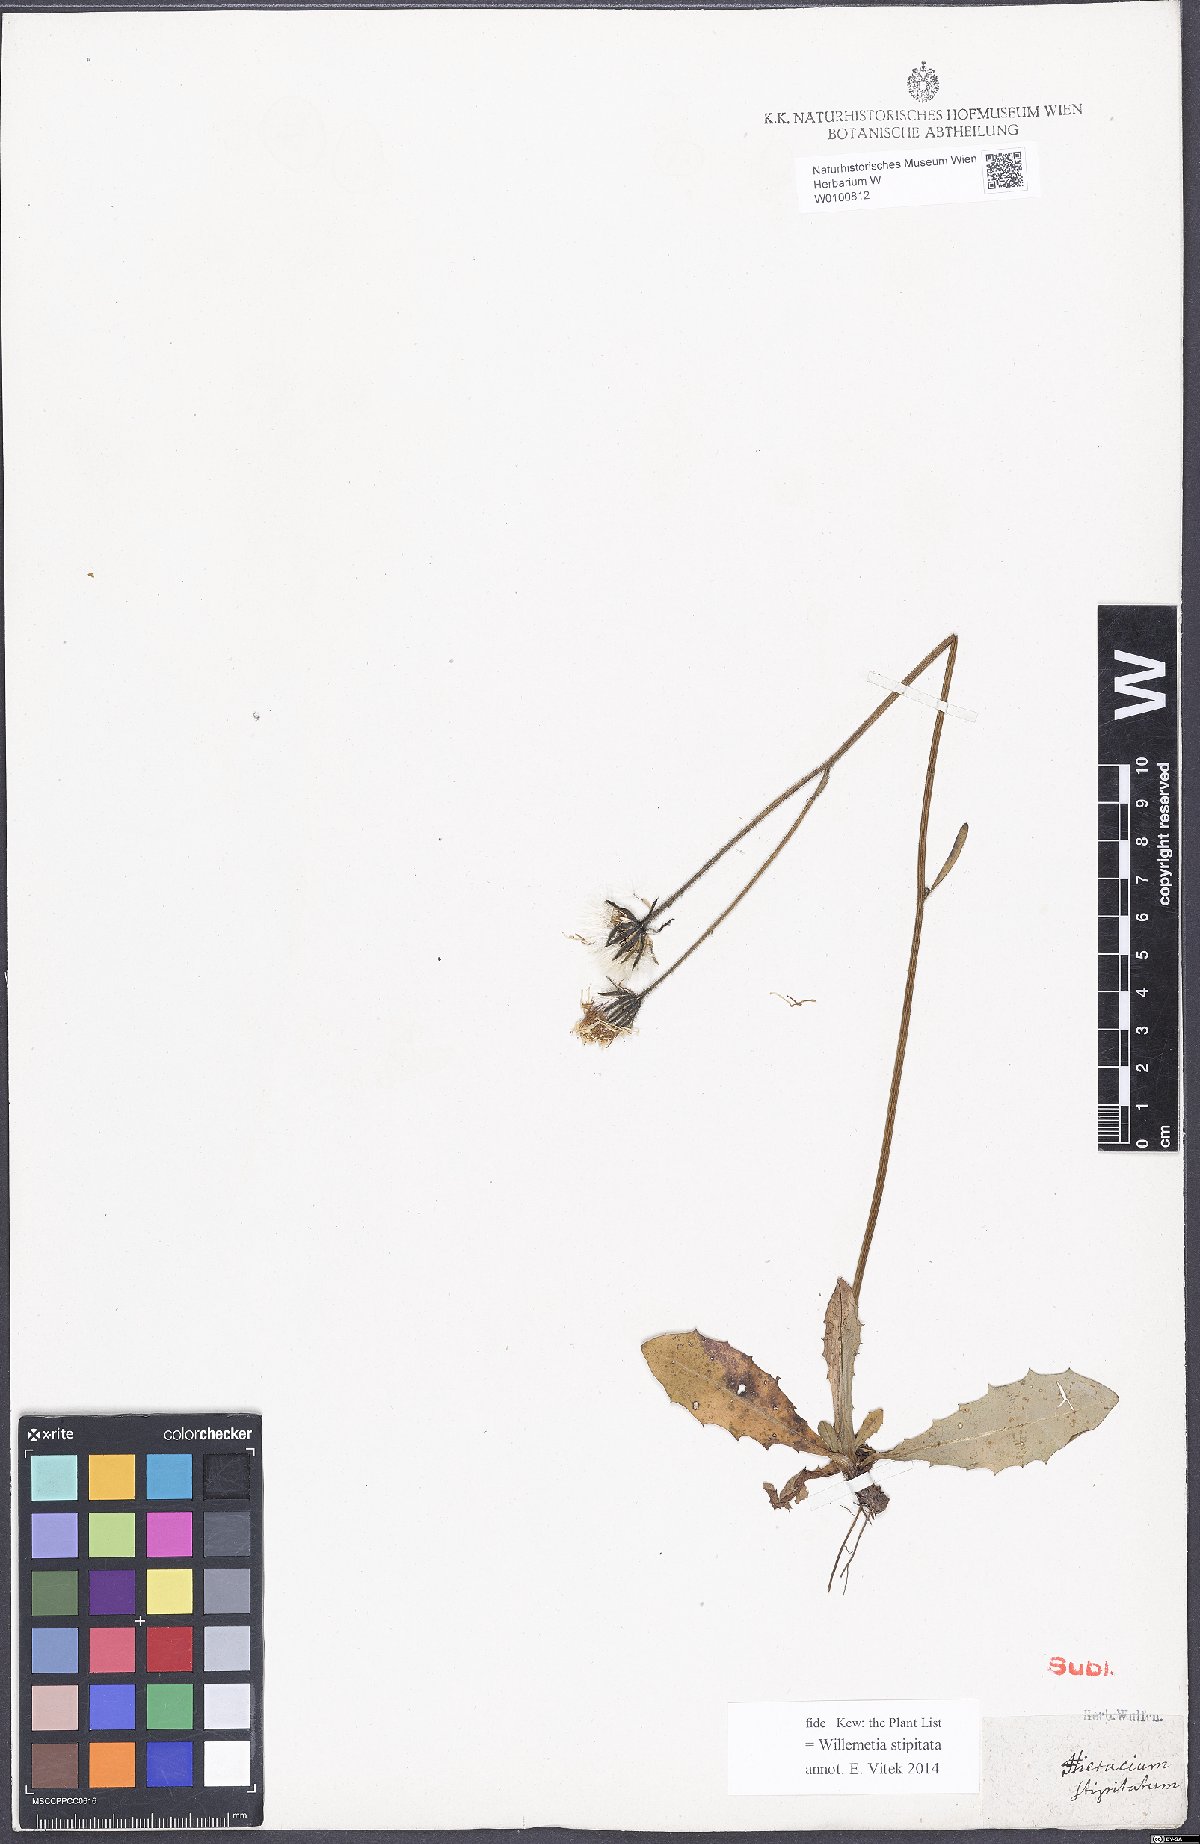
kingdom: Plantae
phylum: Tracheophyta
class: Magnoliopsida
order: Asterales
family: Asteraceae
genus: Willemetia
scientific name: Willemetia stipitata
